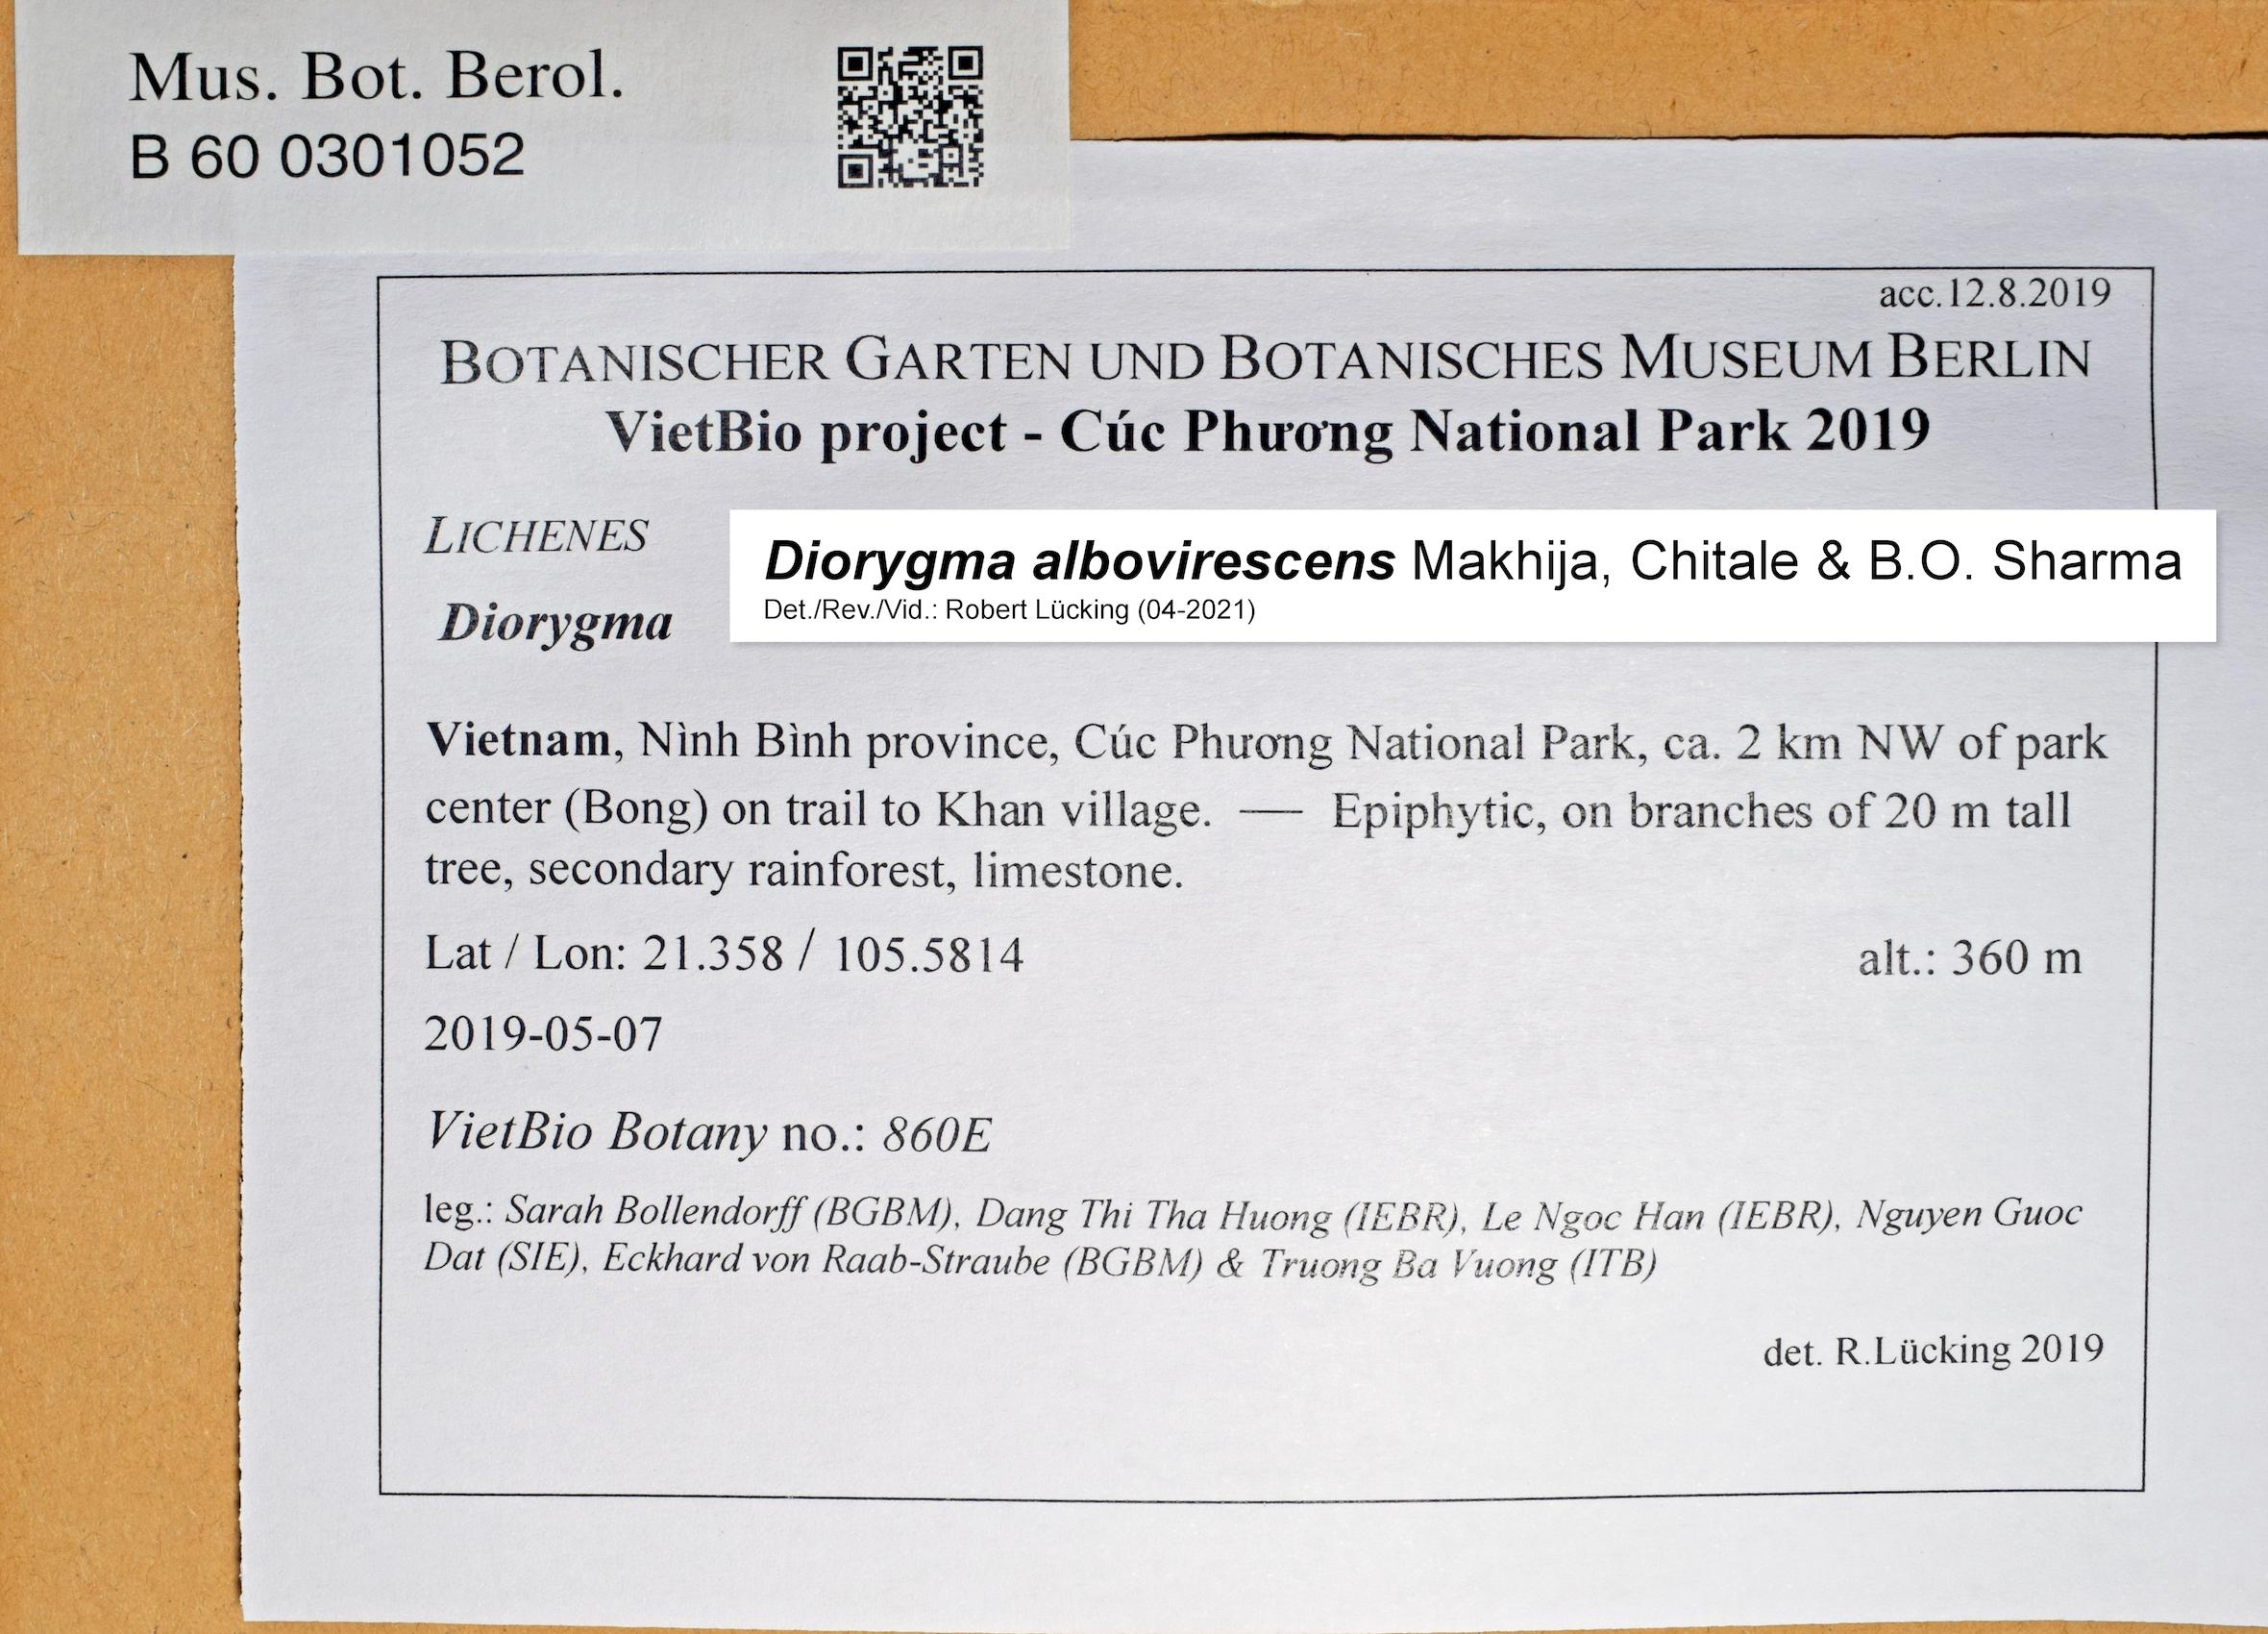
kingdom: Fungi
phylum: Ascomycota
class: Lecanoromycetes
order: Ostropales
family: Graphidaceae
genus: Diorygma
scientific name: Diorygma
